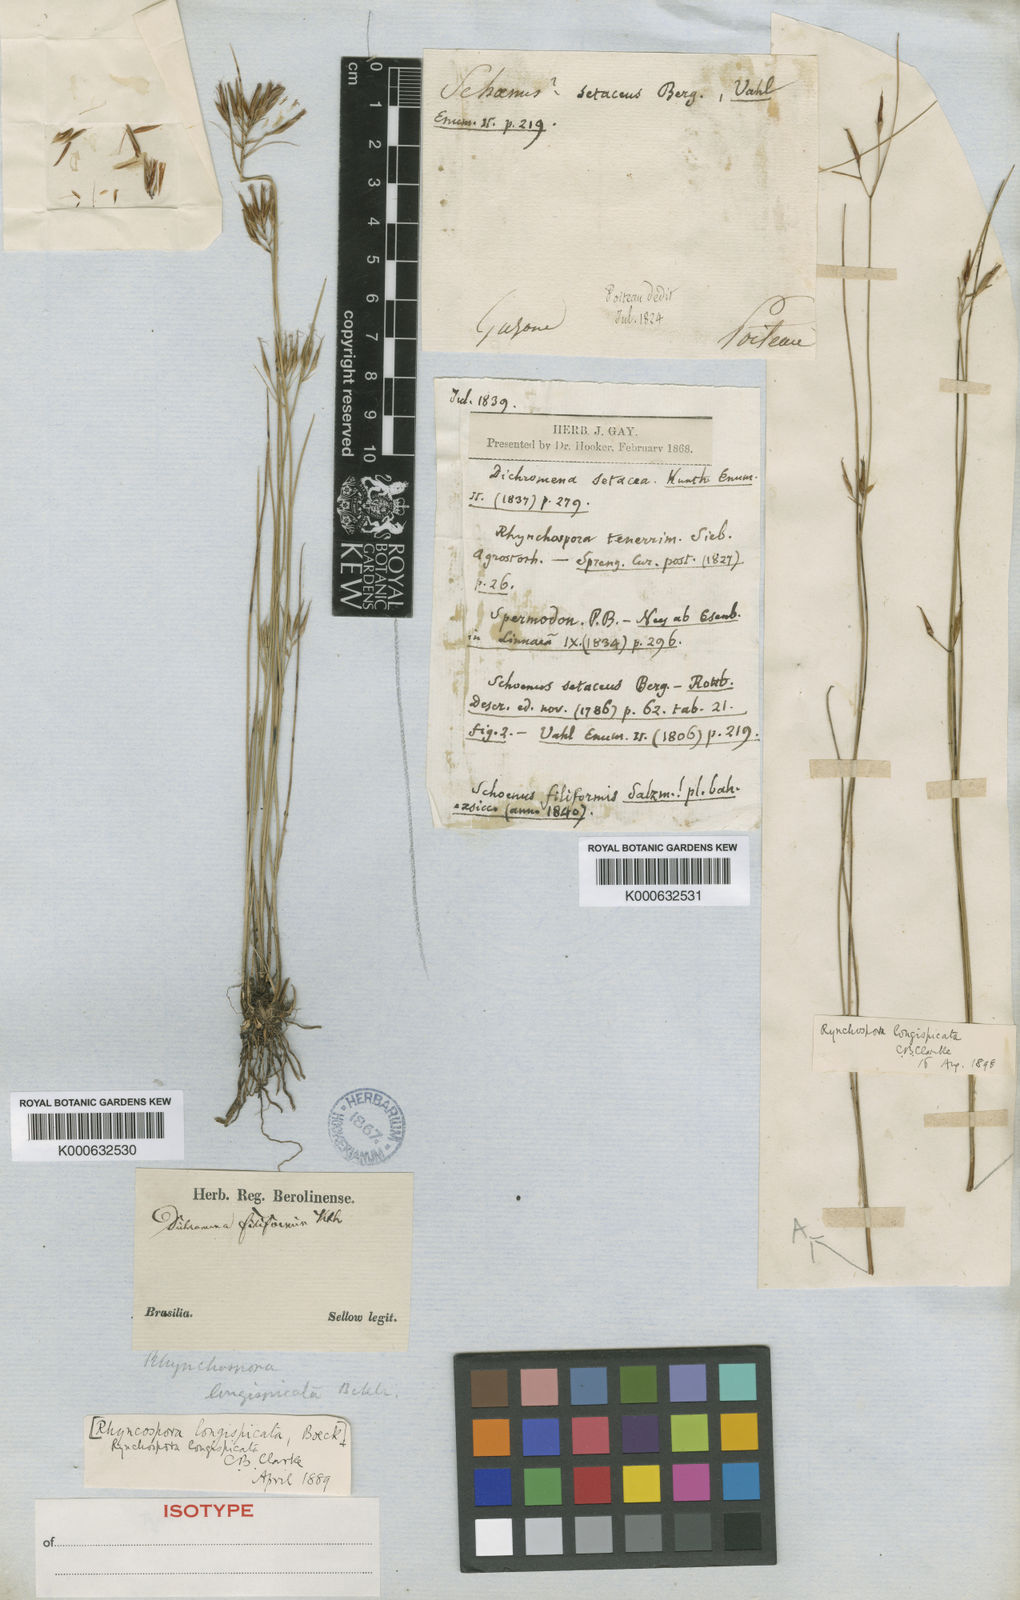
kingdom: Plantae
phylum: Tracheophyta
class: Liliopsida
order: Poales
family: Cyperaceae
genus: Rhynchospora
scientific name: Rhynchospora filiformis
